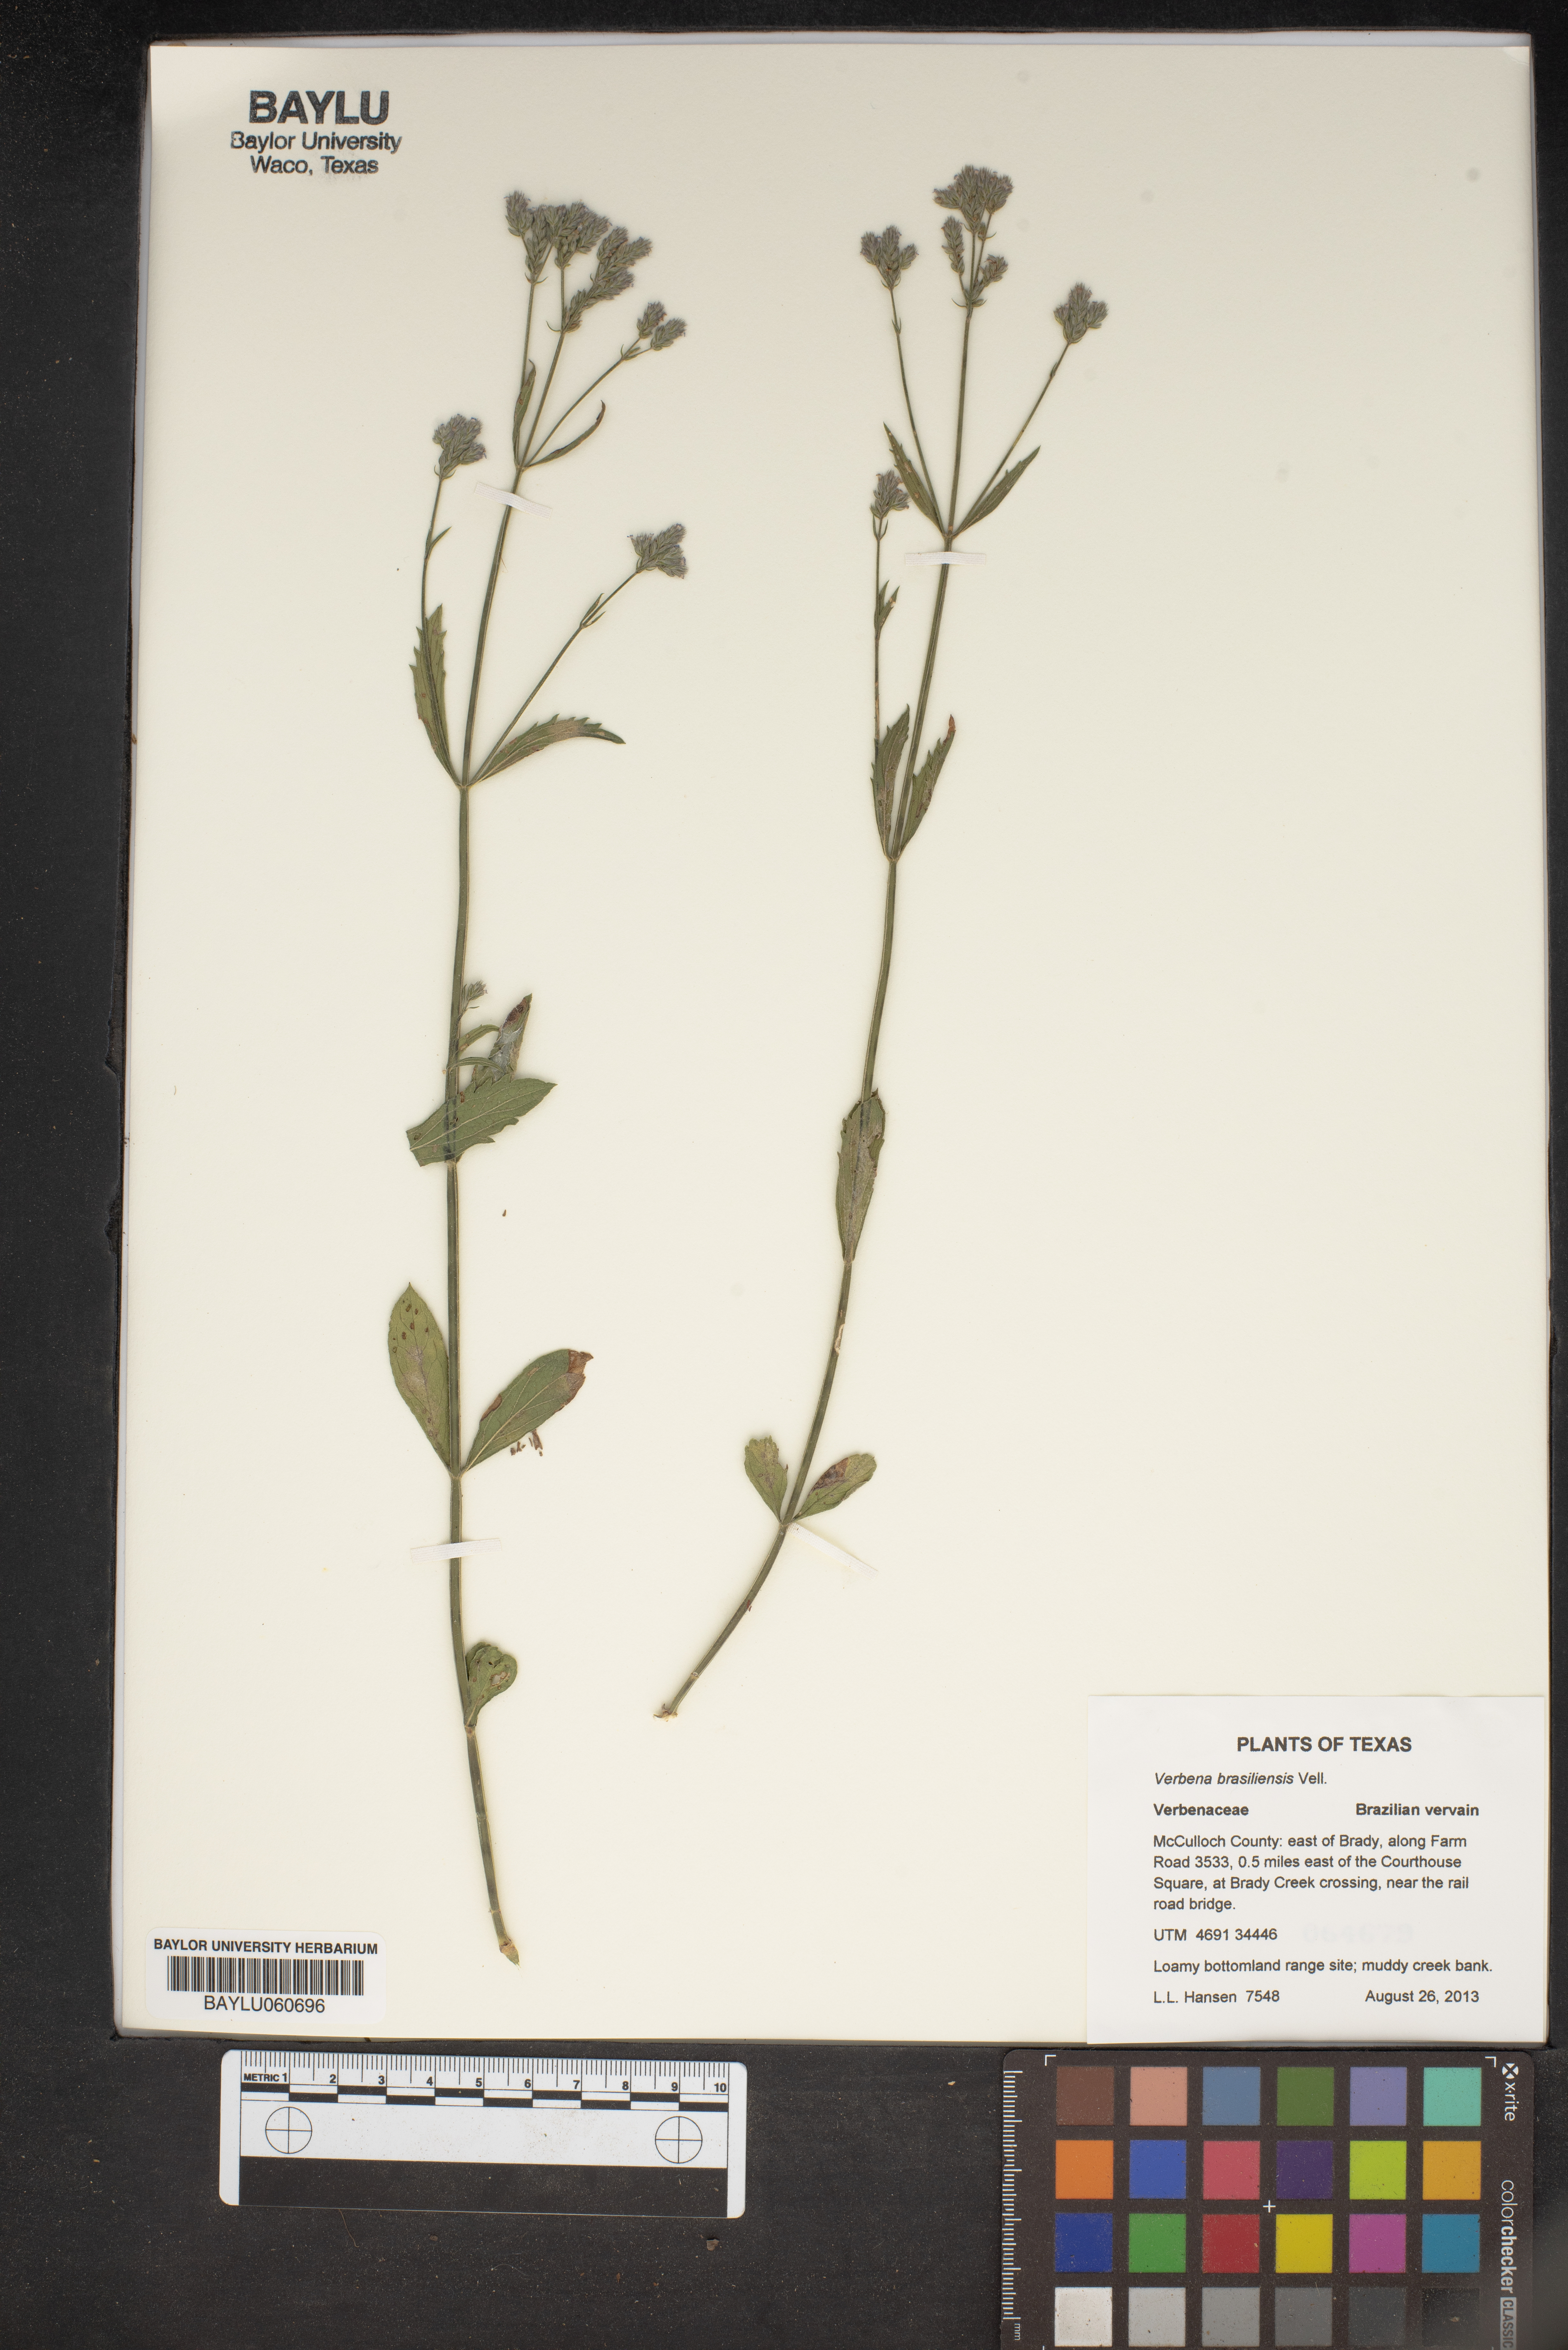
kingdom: Plantae
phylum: Tracheophyta
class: Magnoliopsida
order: Lamiales
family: Verbenaceae
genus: Verbena
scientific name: Verbena brasiliensis
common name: Brazilian vervain
